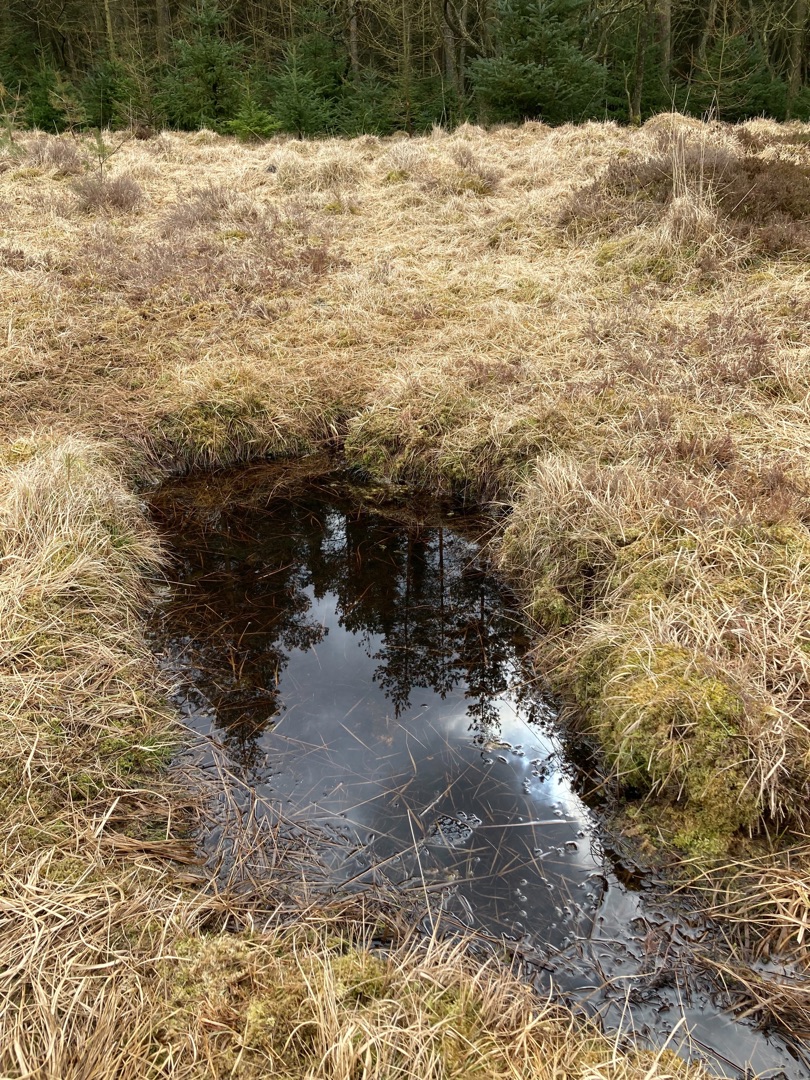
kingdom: Animalia
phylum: Chordata
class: Amphibia
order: Anura
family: Ranidae
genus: Rana
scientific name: Rana
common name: Rana
